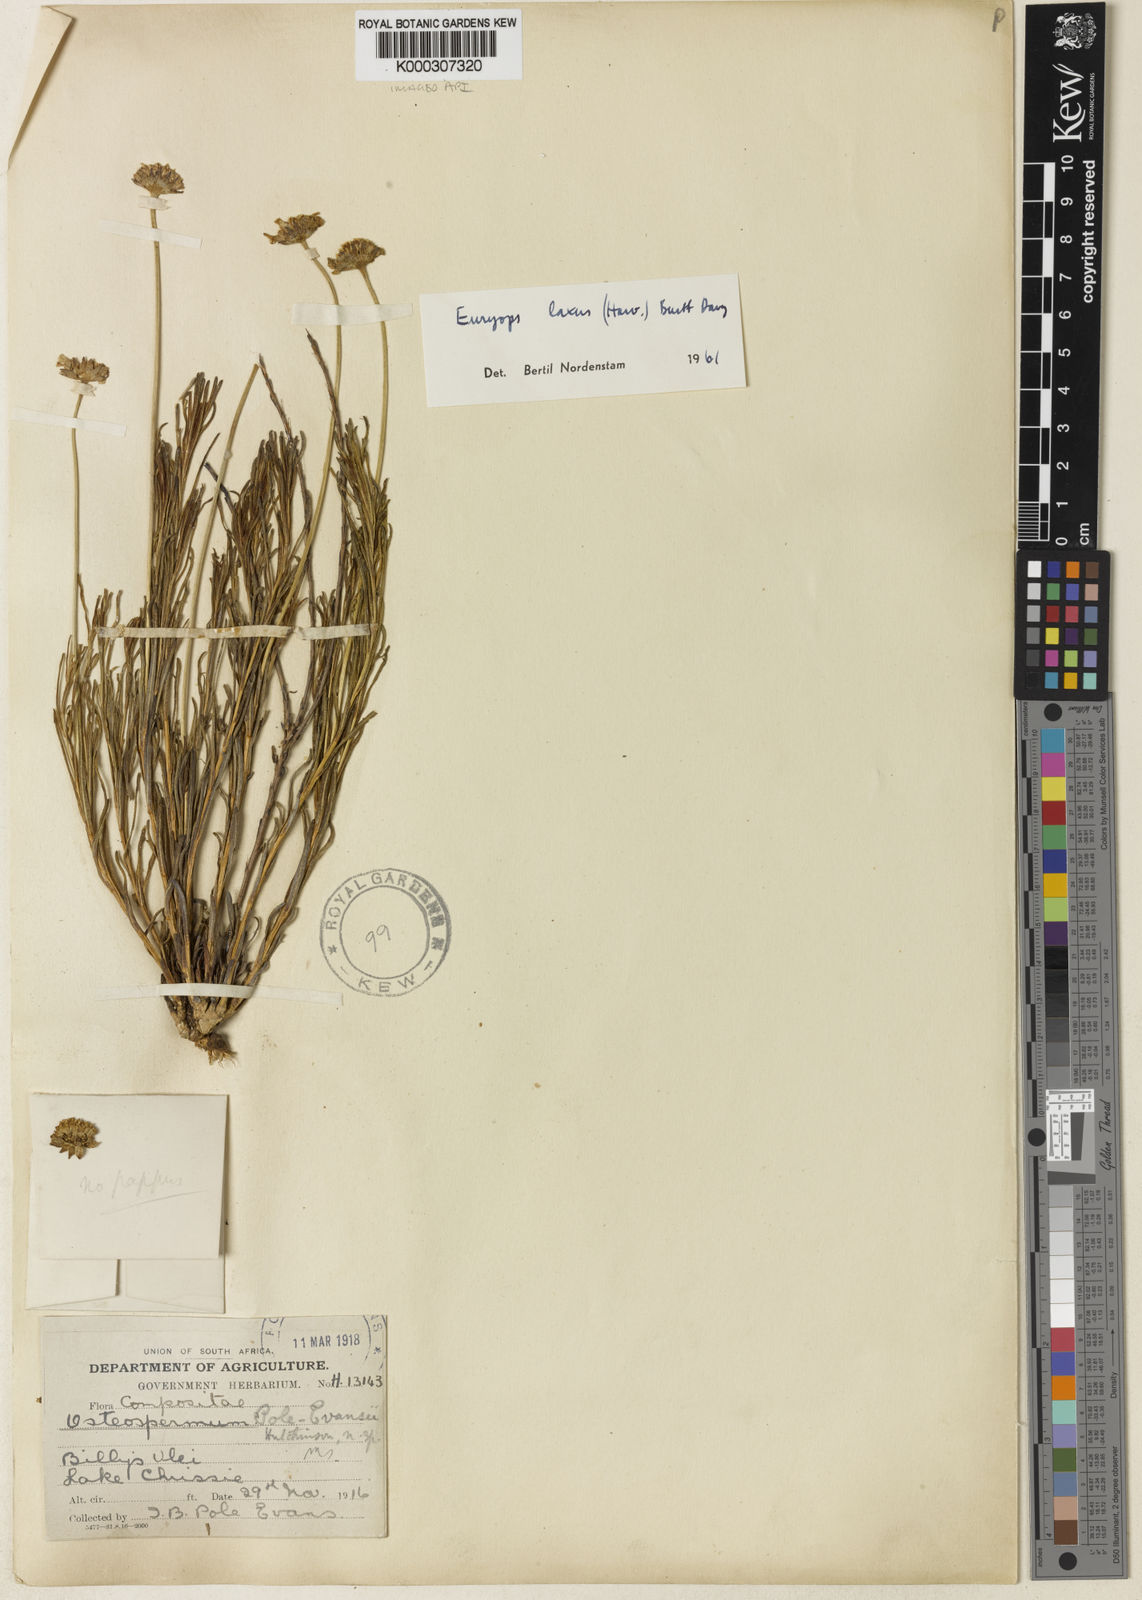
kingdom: Plantae
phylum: Tracheophyta
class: Magnoliopsida
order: Asterales
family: Asteraceae
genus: Euryops
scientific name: Euryops laxus
